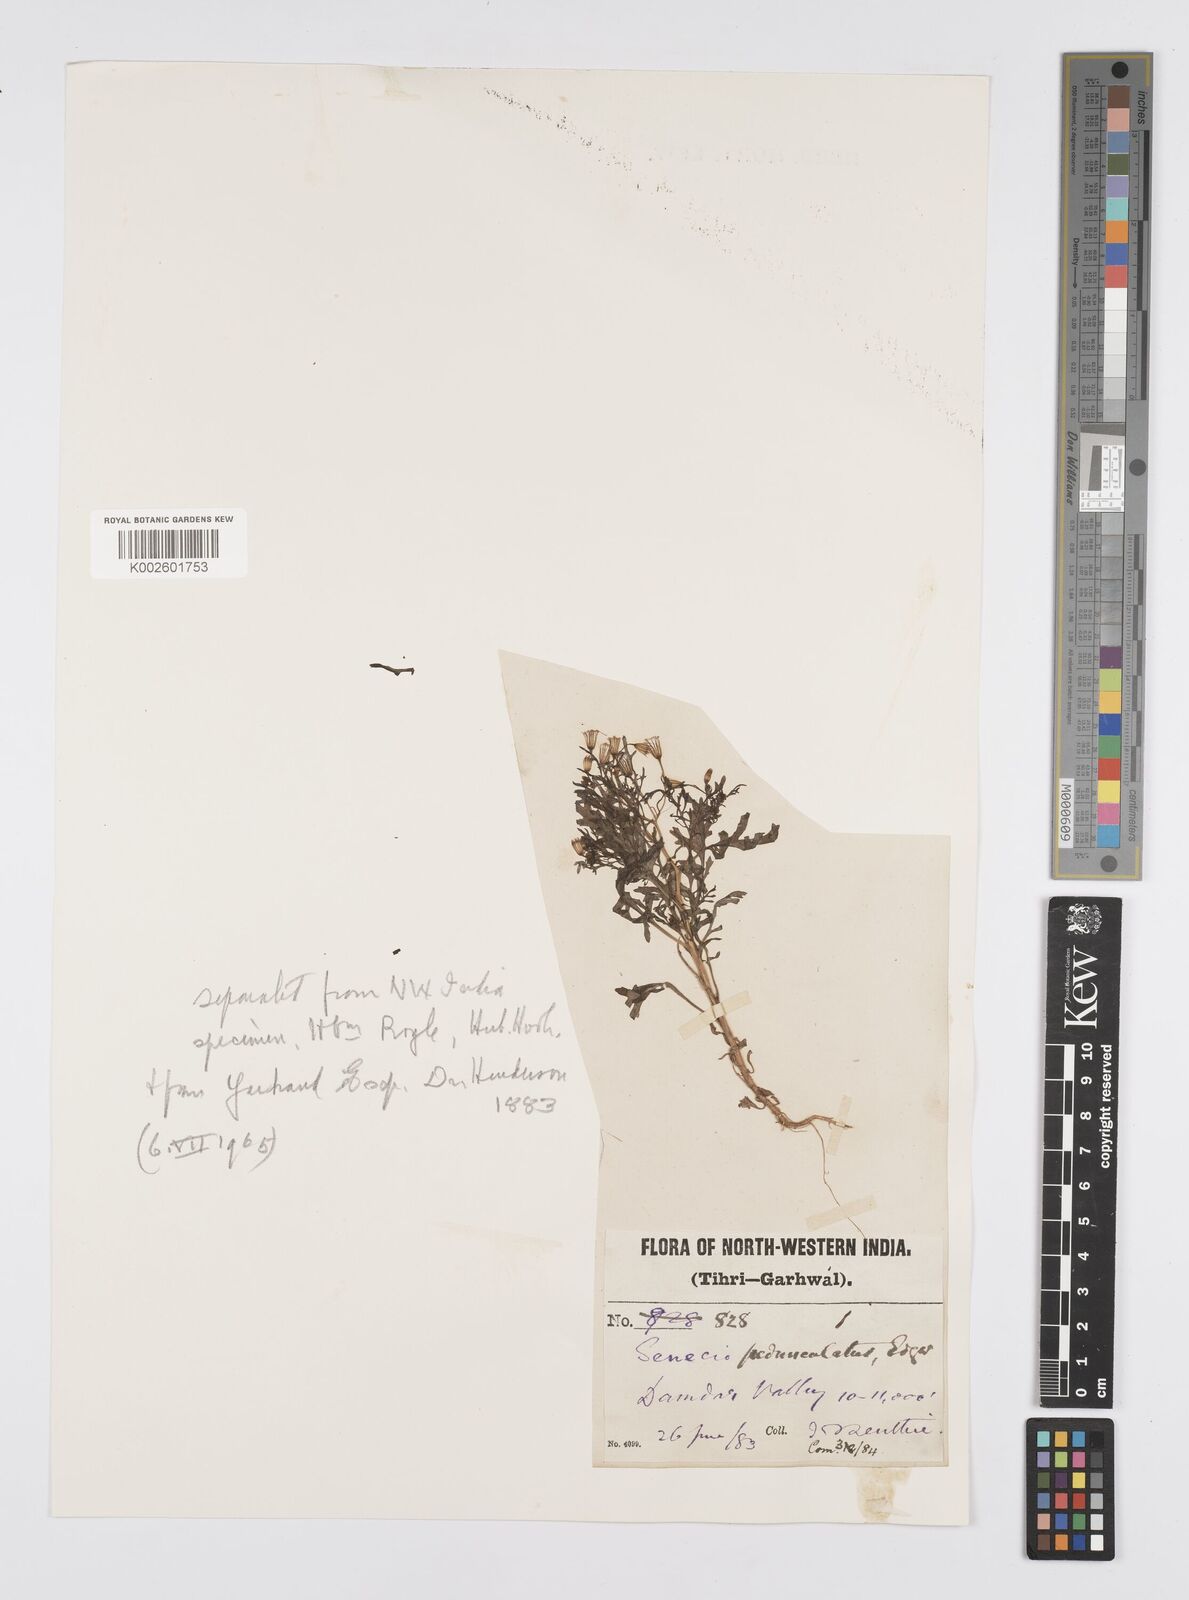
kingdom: Plantae
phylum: Tracheophyta
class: Magnoliopsida
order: Asterales
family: Asteraceae
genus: Senecio
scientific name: Senecio krascheninnikovii
